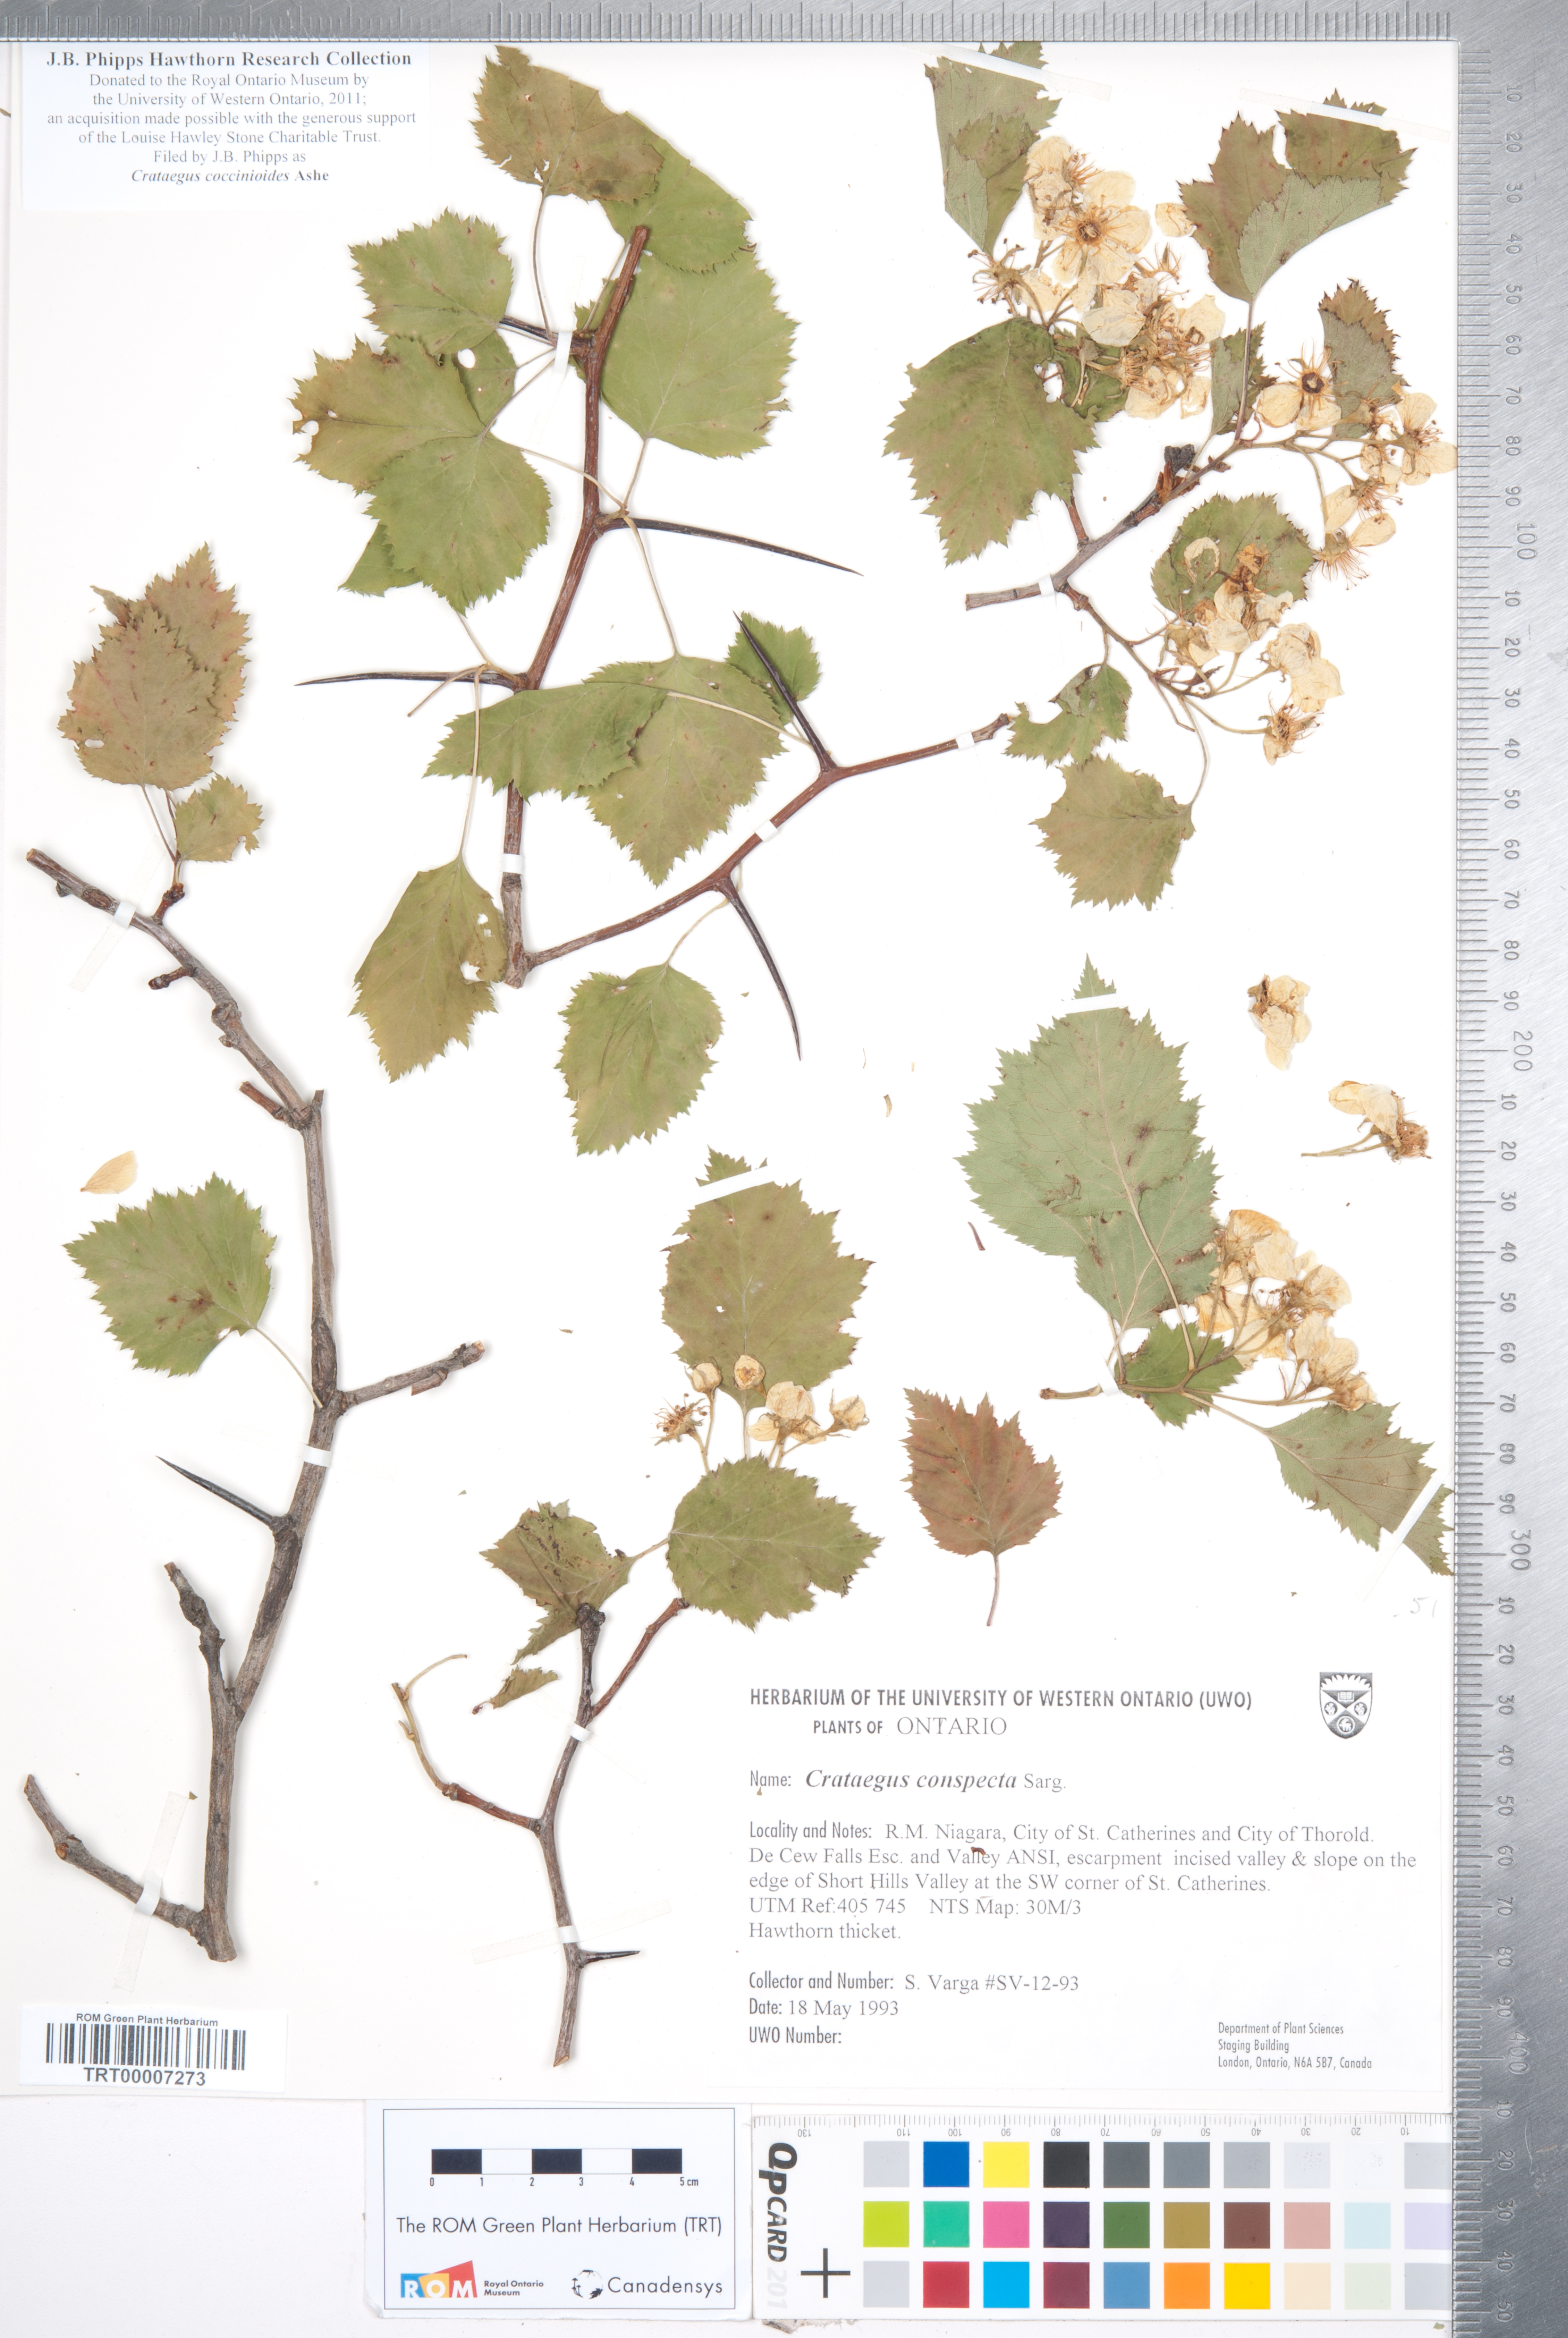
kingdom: Plantae
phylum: Tracheophyta
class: Magnoliopsida
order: Rosales
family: Rosaceae
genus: Crataegus
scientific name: Crataegus coccinioides
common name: Large-flowered cockspurthorn
